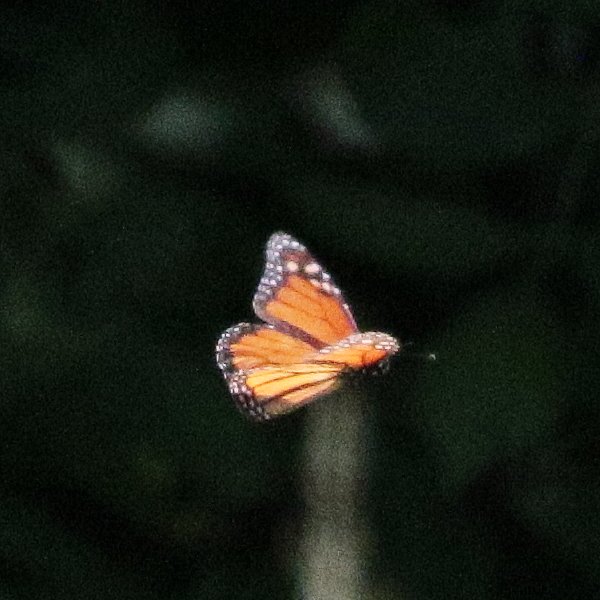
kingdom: Animalia
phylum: Arthropoda
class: Insecta
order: Lepidoptera
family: Nymphalidae
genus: Danaus
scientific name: Danaus plexippus
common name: Monarch
